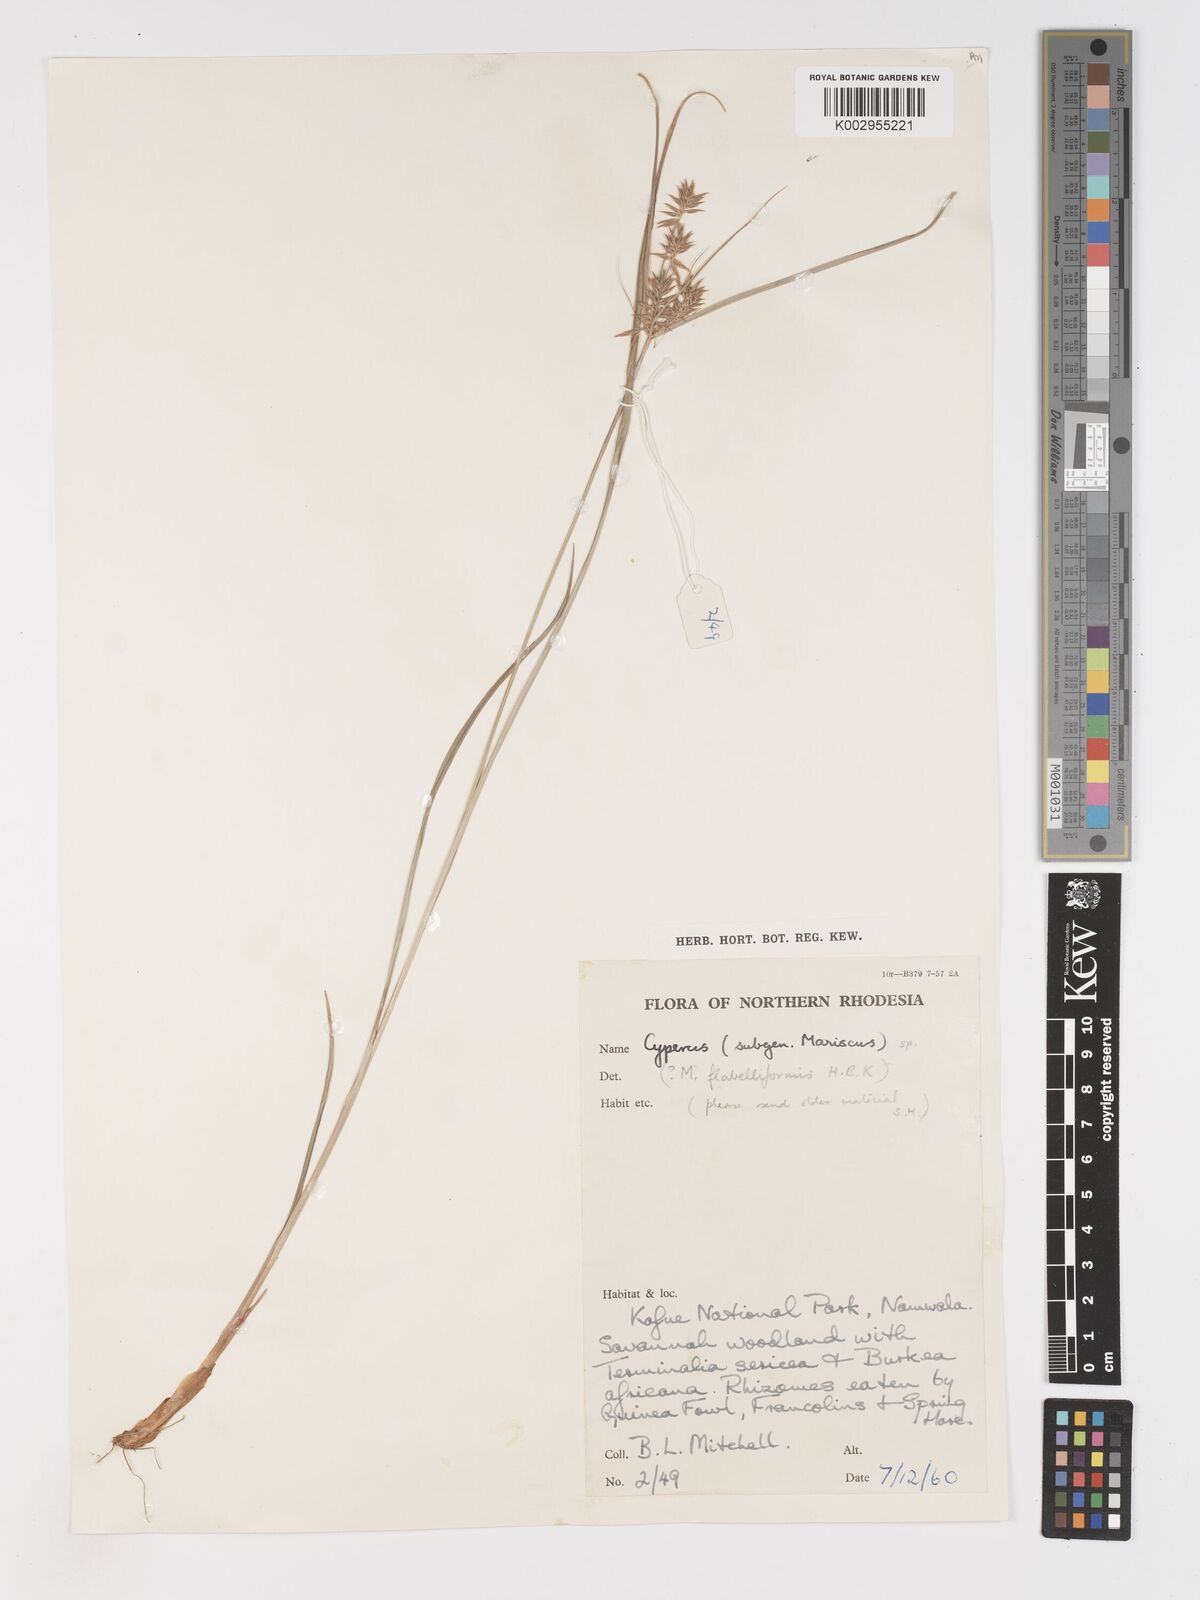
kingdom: Plantae
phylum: Tracheophyta
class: Liliopsida
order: Poales
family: Cyperaceae
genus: Cyperus
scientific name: Cyperus
